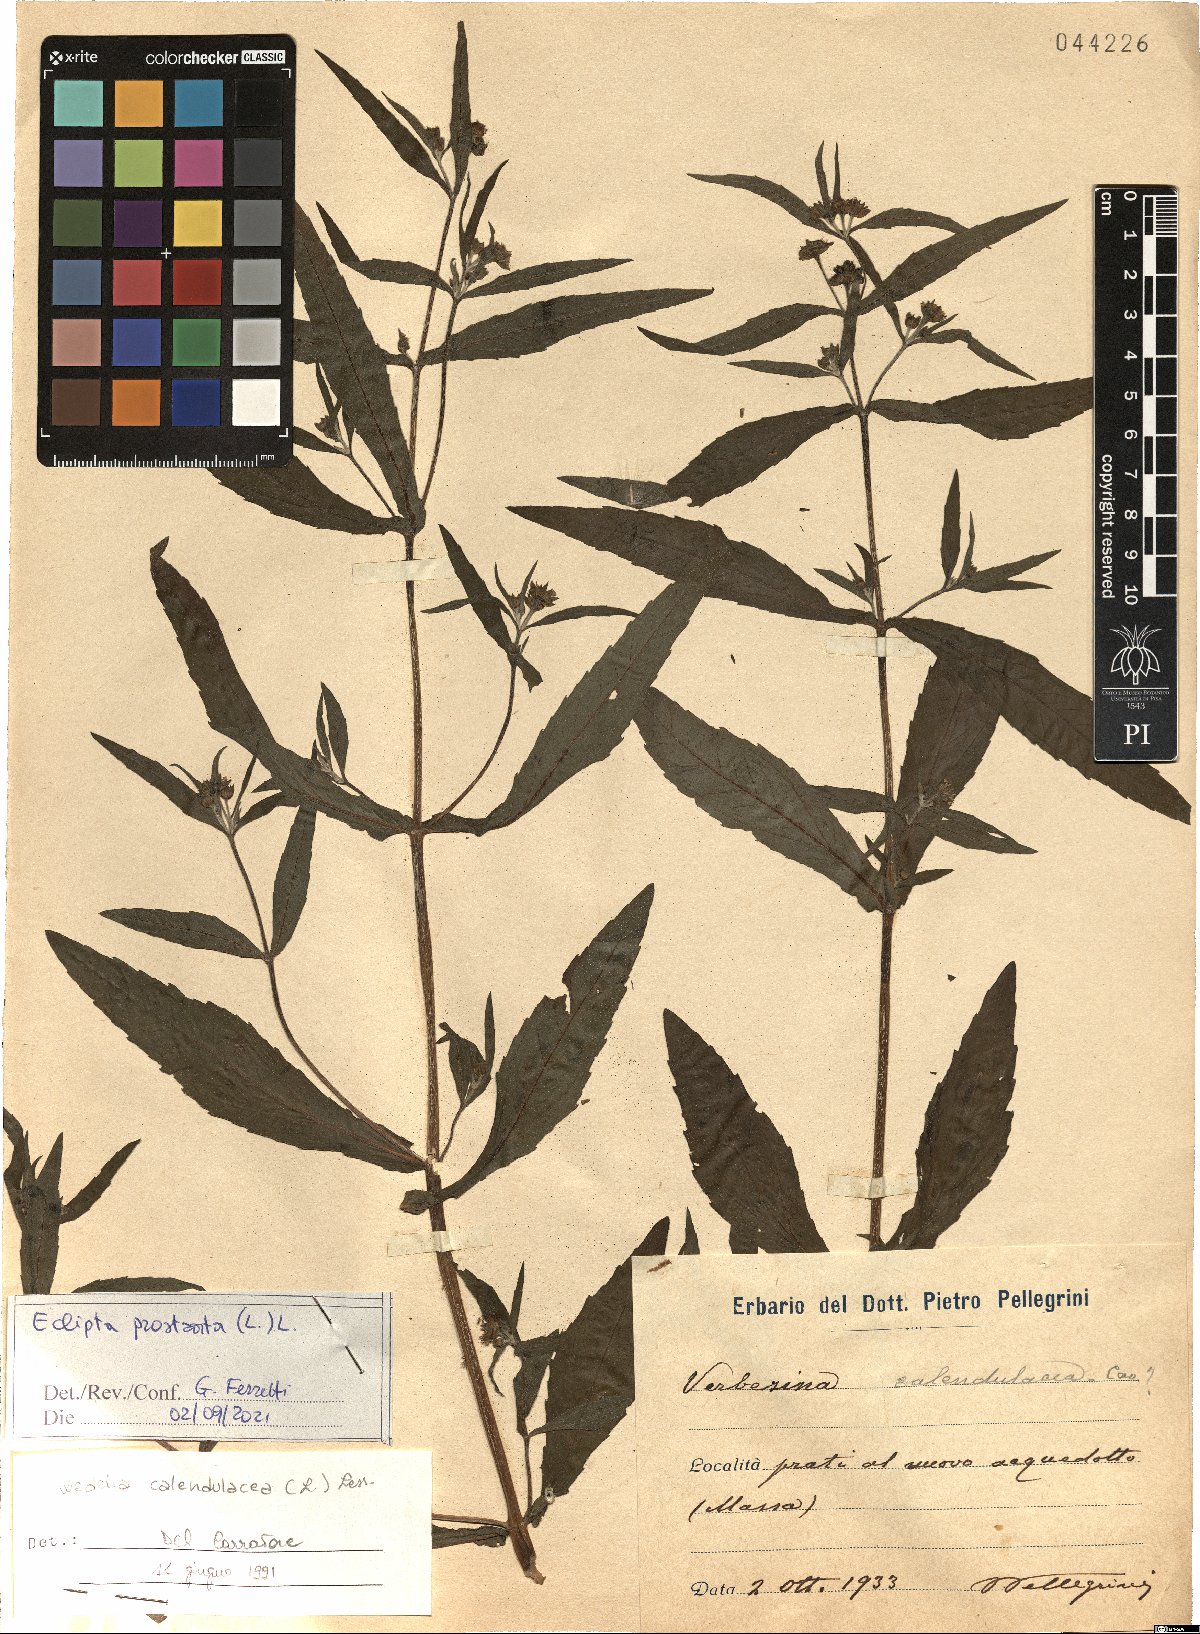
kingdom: Plantae
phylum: Tracheophyta
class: Magnoliopsida
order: Asterales
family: Asteraceae
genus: Eclipta
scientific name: Eclipta prostrata
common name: False daisy
